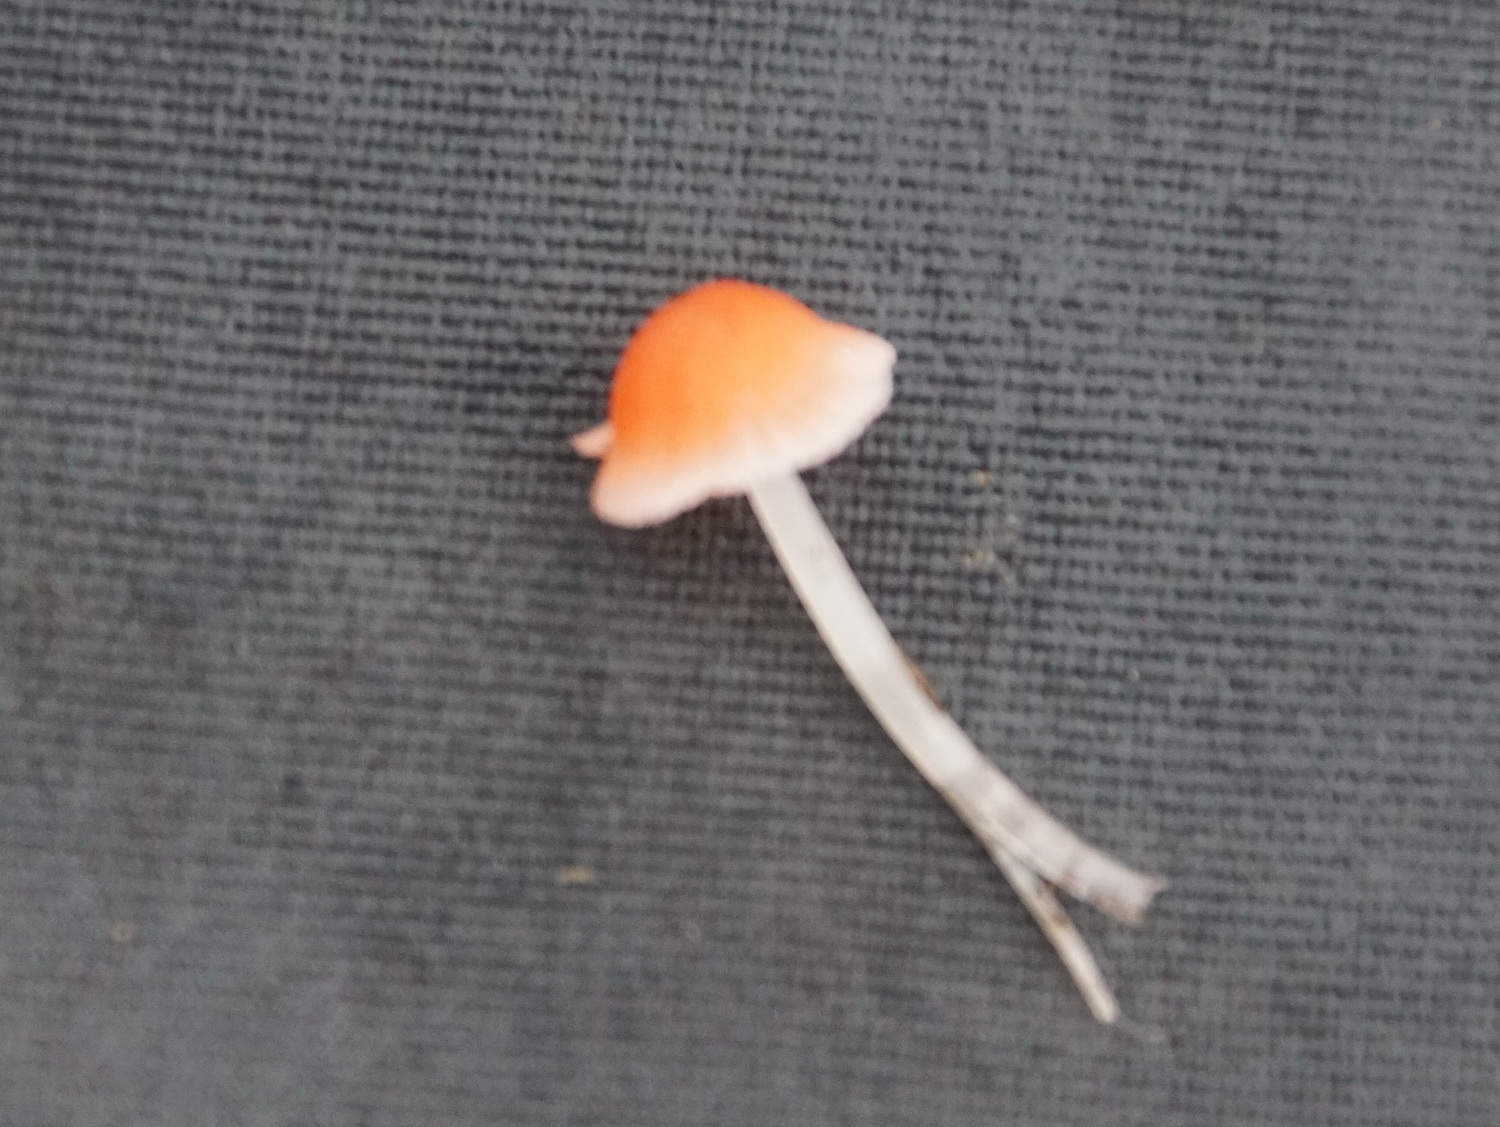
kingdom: Fungi
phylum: Basidiomycota
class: Agaricomycetes
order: Agaricales
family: Mycenaceae
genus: Atheniella
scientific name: Atheniella adonis
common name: rønnerød huesvamp
